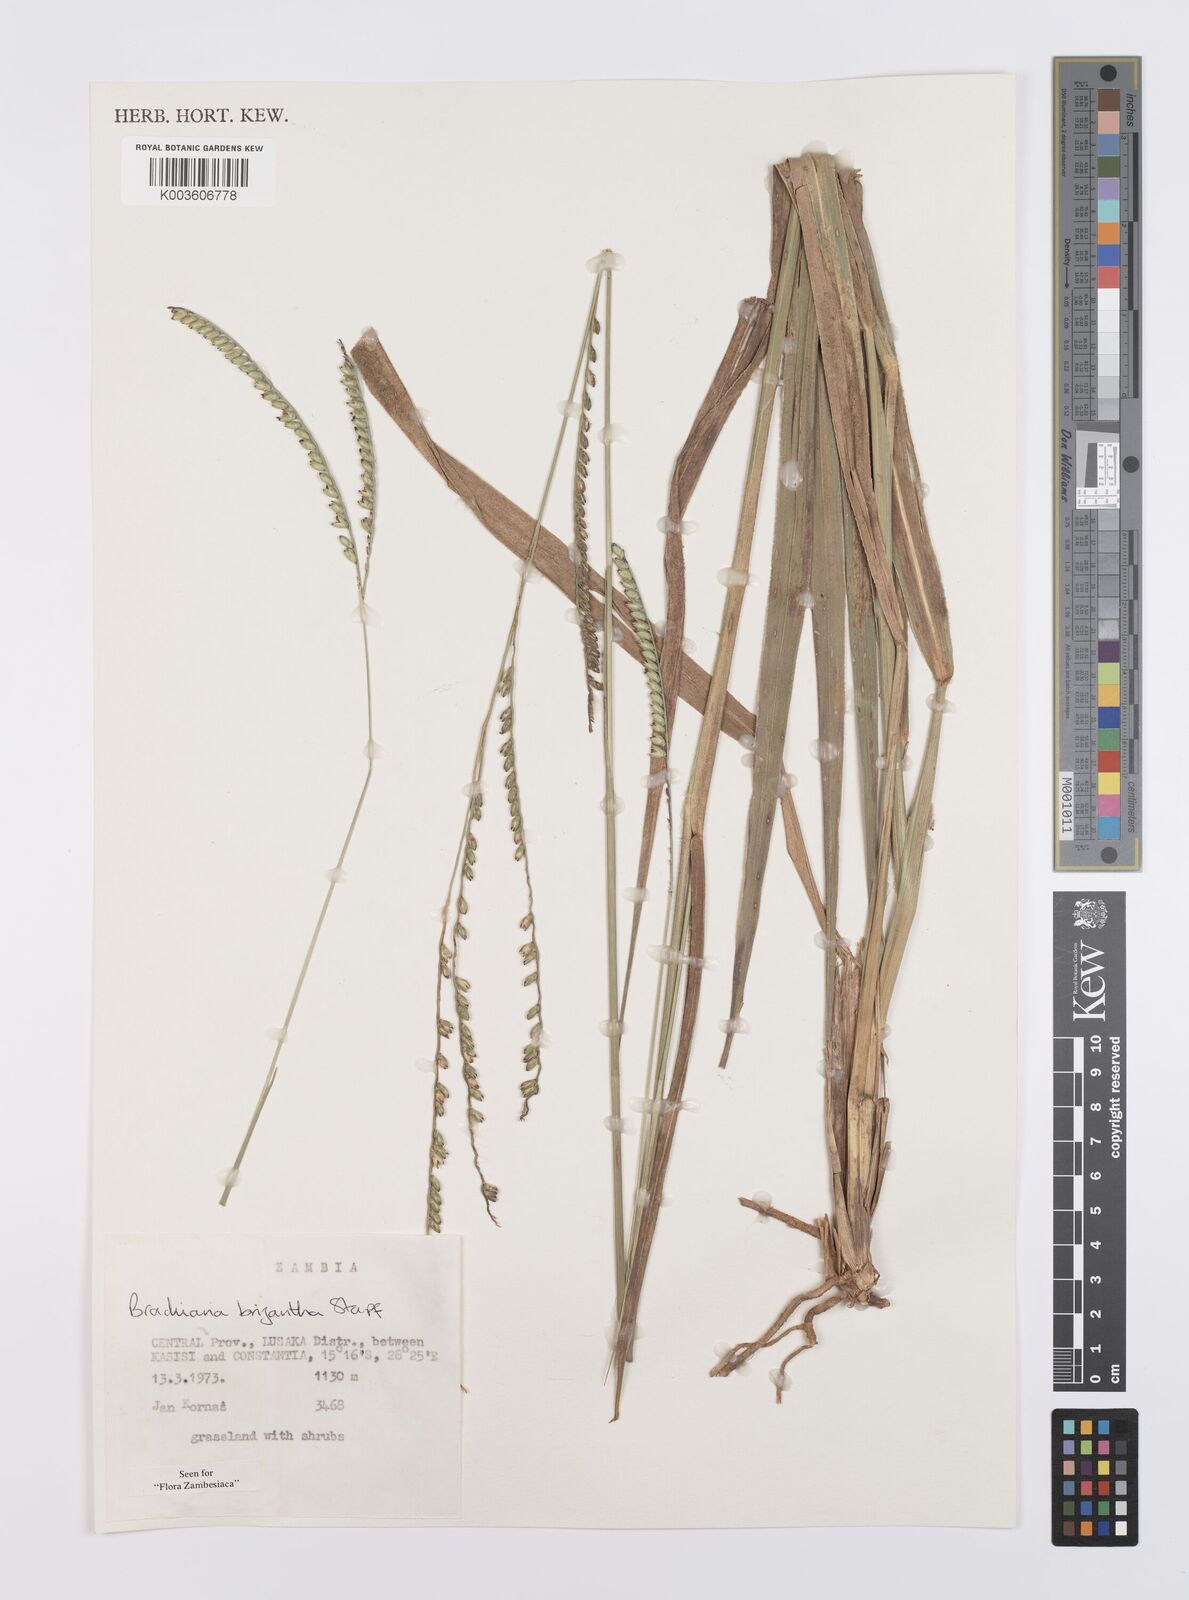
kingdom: Plantae
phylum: Tracheophyta
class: Liliopsida
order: Poales
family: Poaceae
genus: Urochloa
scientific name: Urochloa brizantha
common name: Palisade signalgrass
